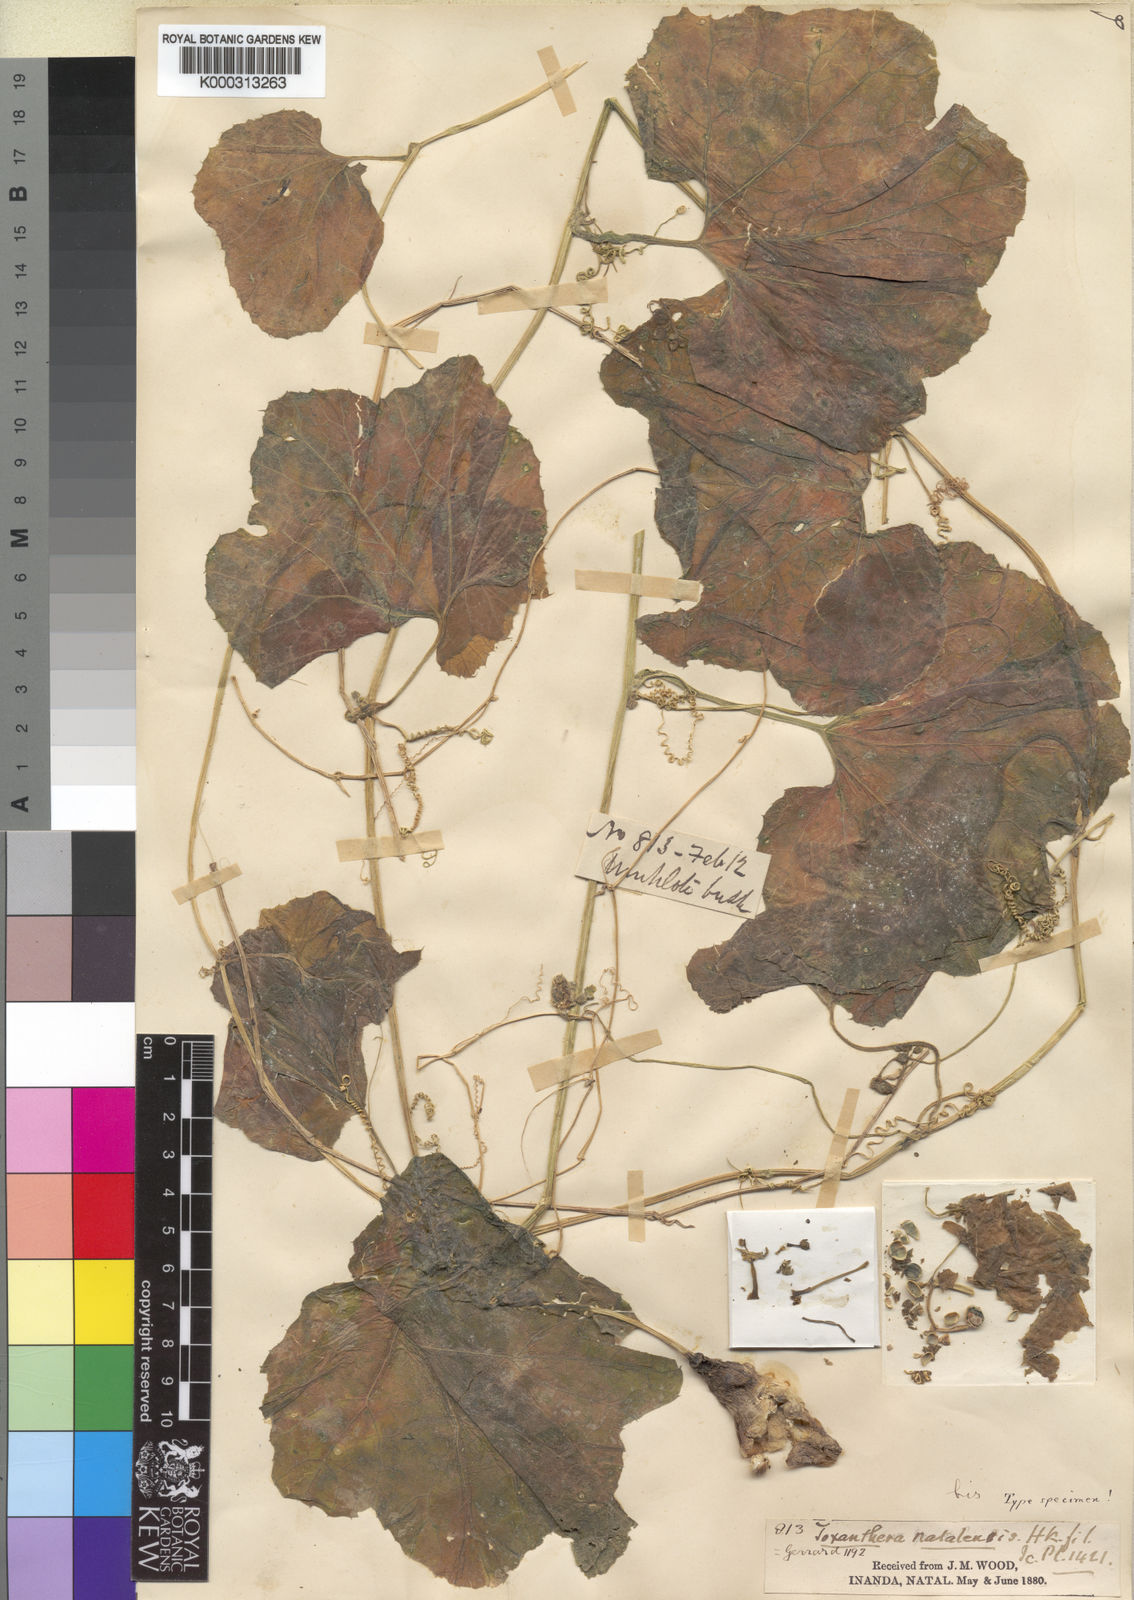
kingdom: Plantae
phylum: Tracheophyta
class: Magnoliopsida
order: Cucurbitales
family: Cucurbitaceae
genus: Kedrostis
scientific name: Kedrostis leloja
